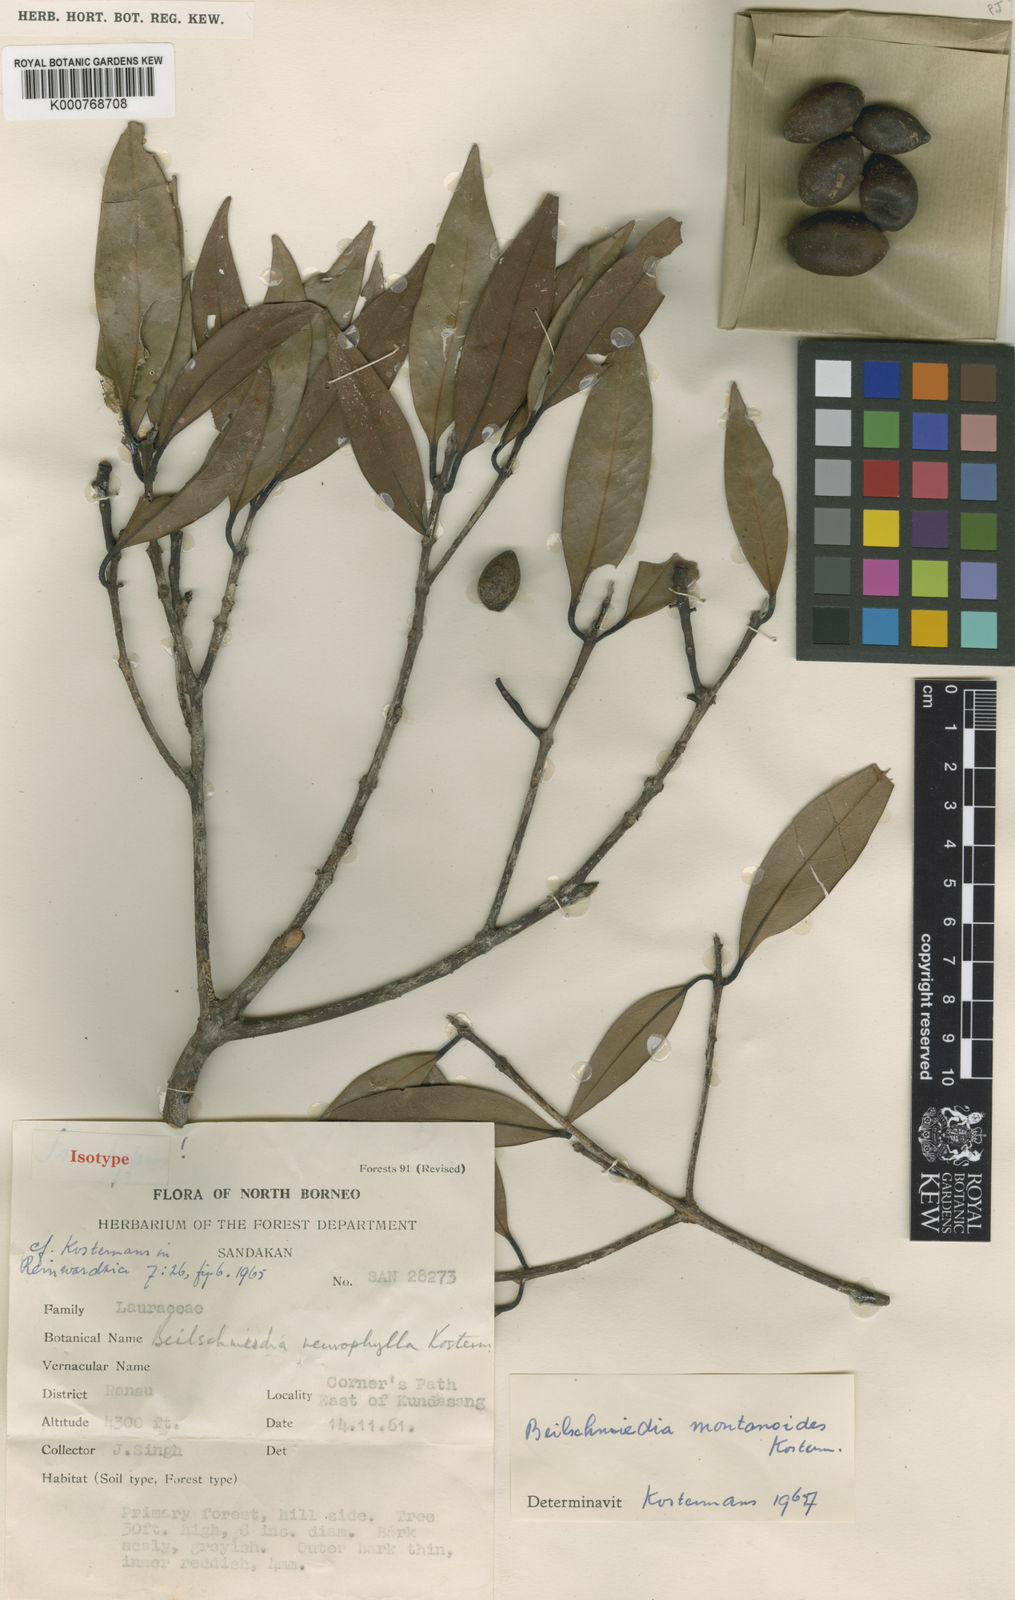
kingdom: Plantae
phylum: Tracheophyta
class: Magnoliopsida
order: Laurales
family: Lauraceae
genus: Beilschmiedia
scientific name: Beilschmiedia montanoides
